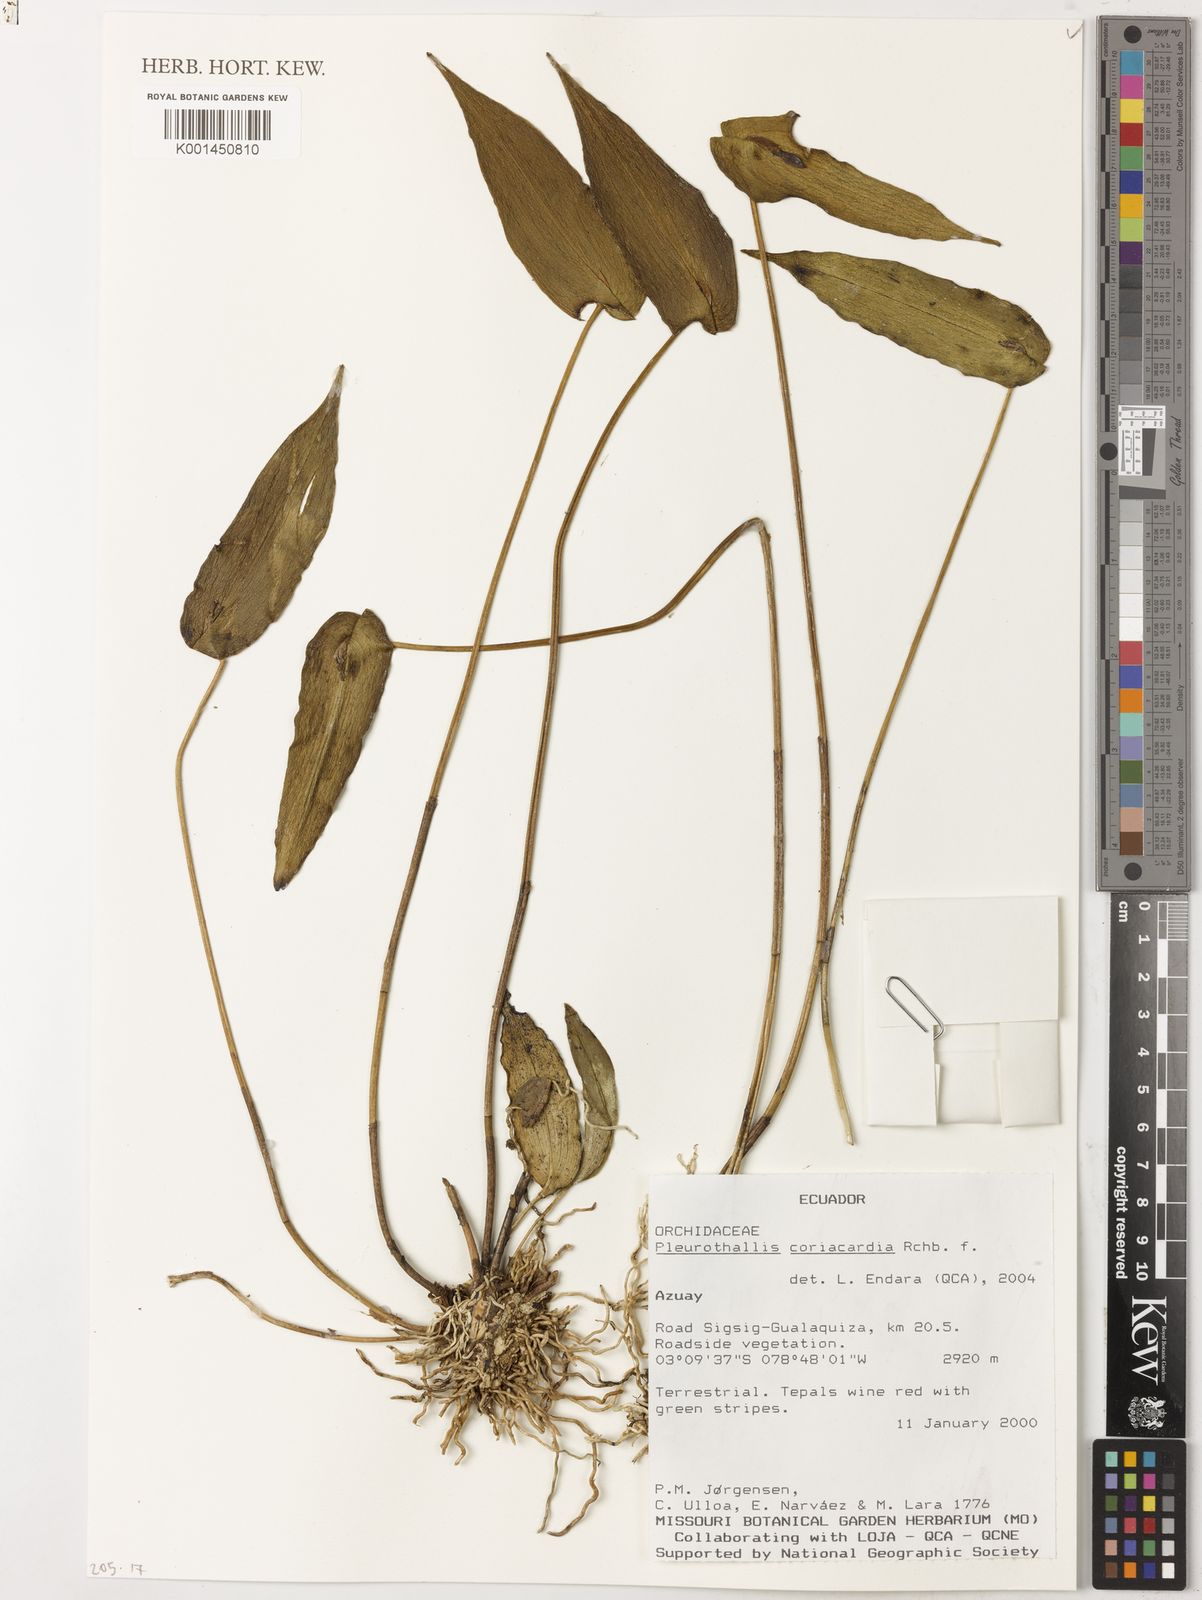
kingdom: Plantae
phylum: Tracheophyta
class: Liliopsida
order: Asparagales
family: Orchidaceae
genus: Pleurothallis
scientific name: Pleurothallis coriacardia
